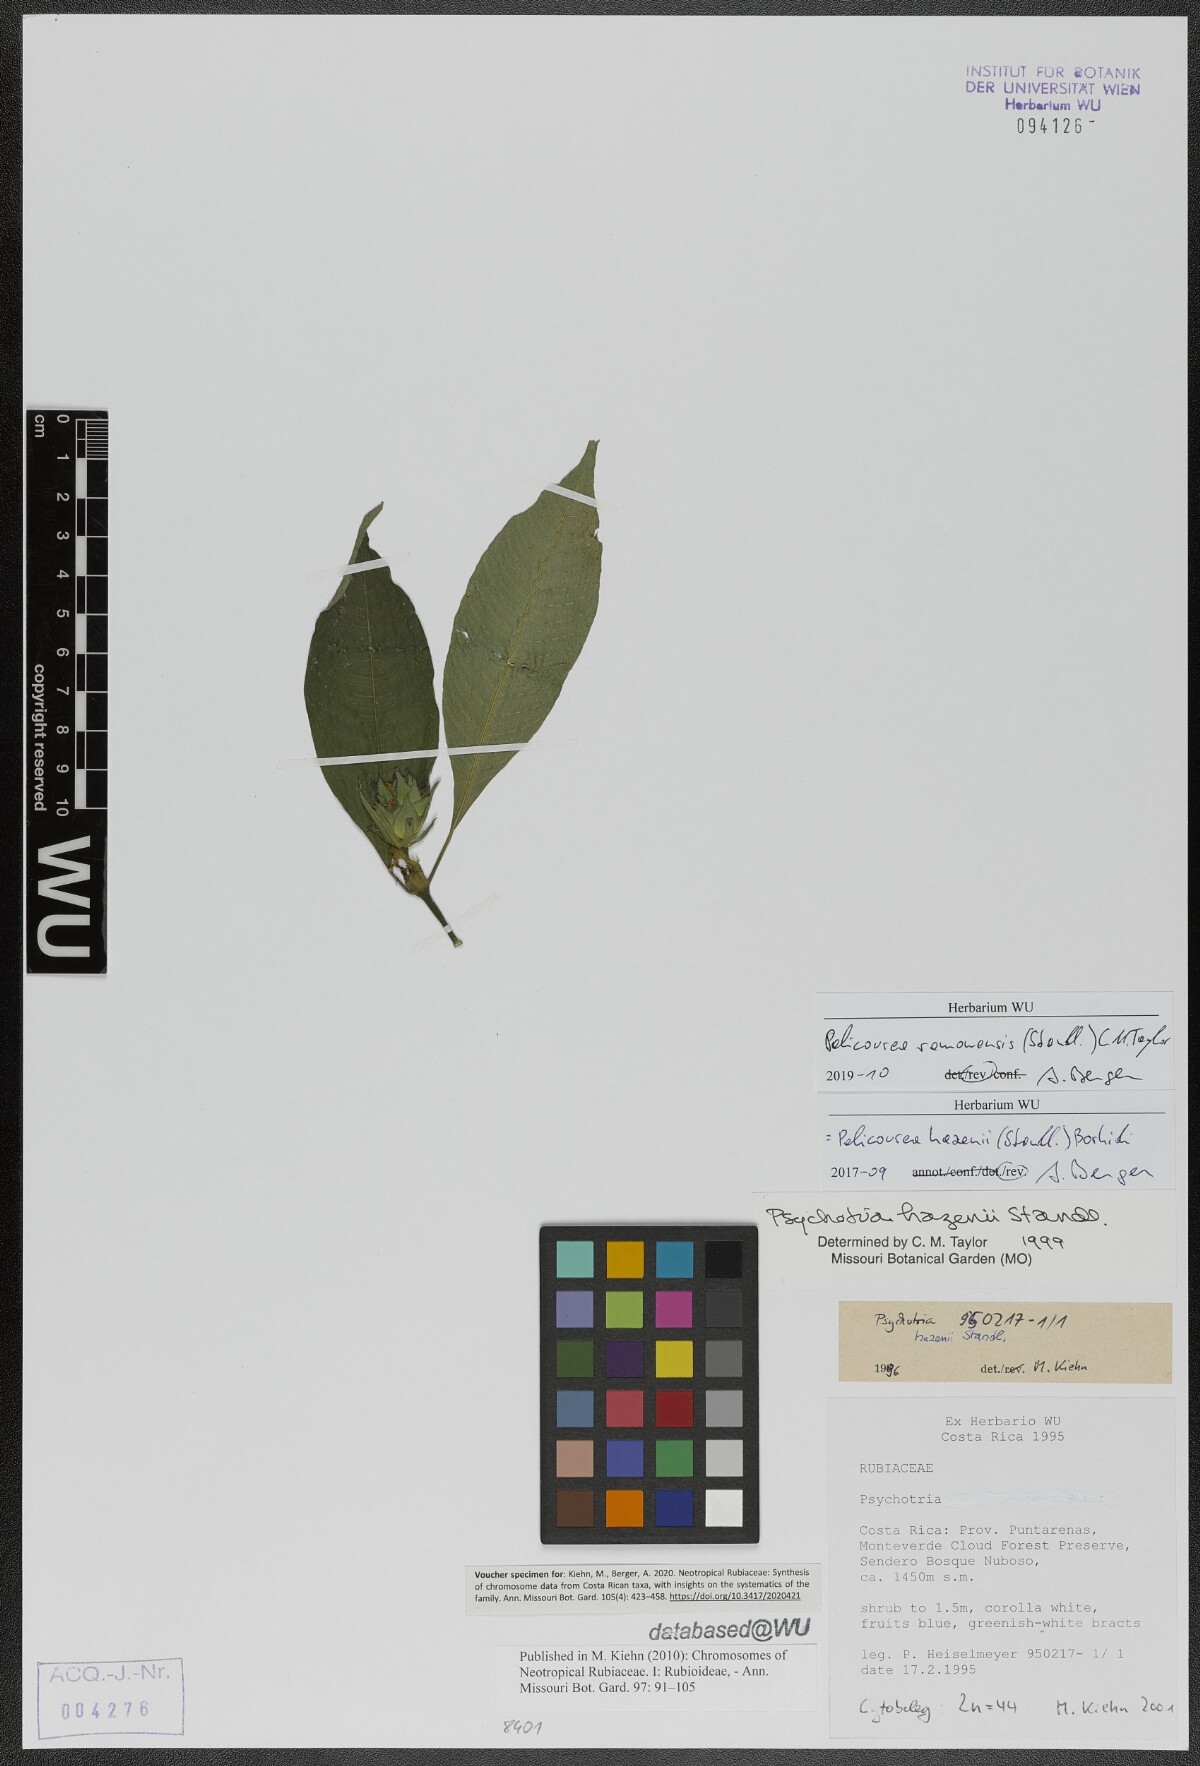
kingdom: Plantae
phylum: Tracheophyta
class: Magnoliopsida
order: Gentianales
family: Rubiaceae
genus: Palicourea
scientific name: Palicourea ramonensis
